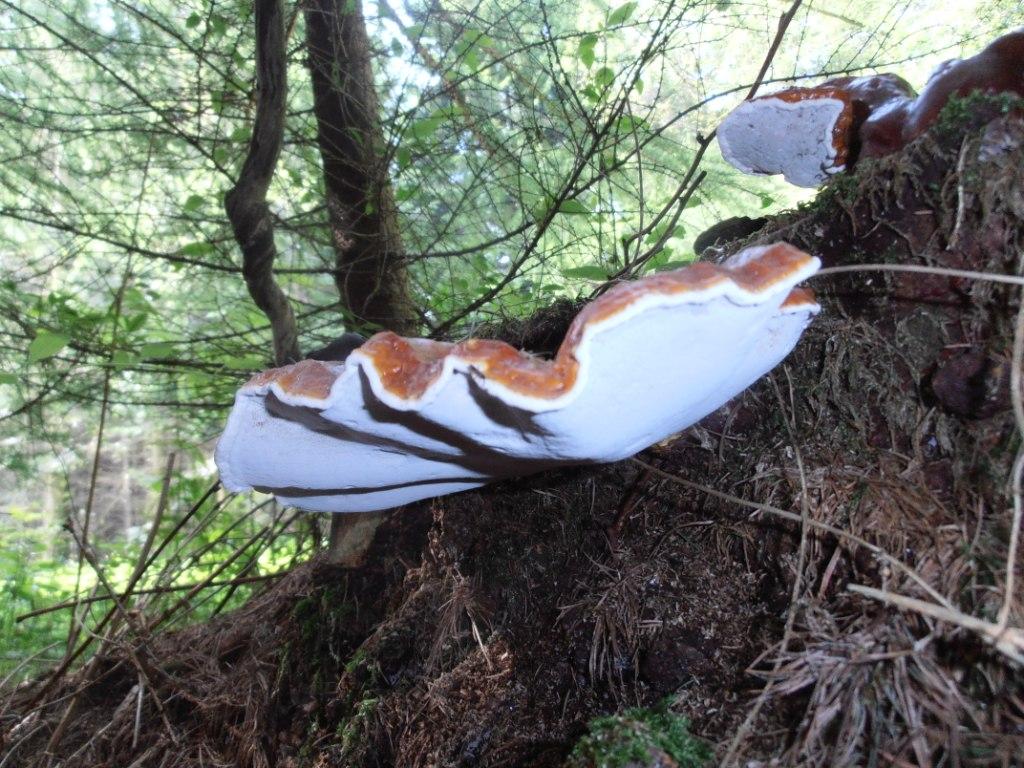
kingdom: Fungi
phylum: Basidiomycota
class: Agaricomycetes
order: Polyporales
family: Polyporaceae
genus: Ganoderma
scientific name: Ganoderma lucidum
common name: skinnende lakporesvamp
